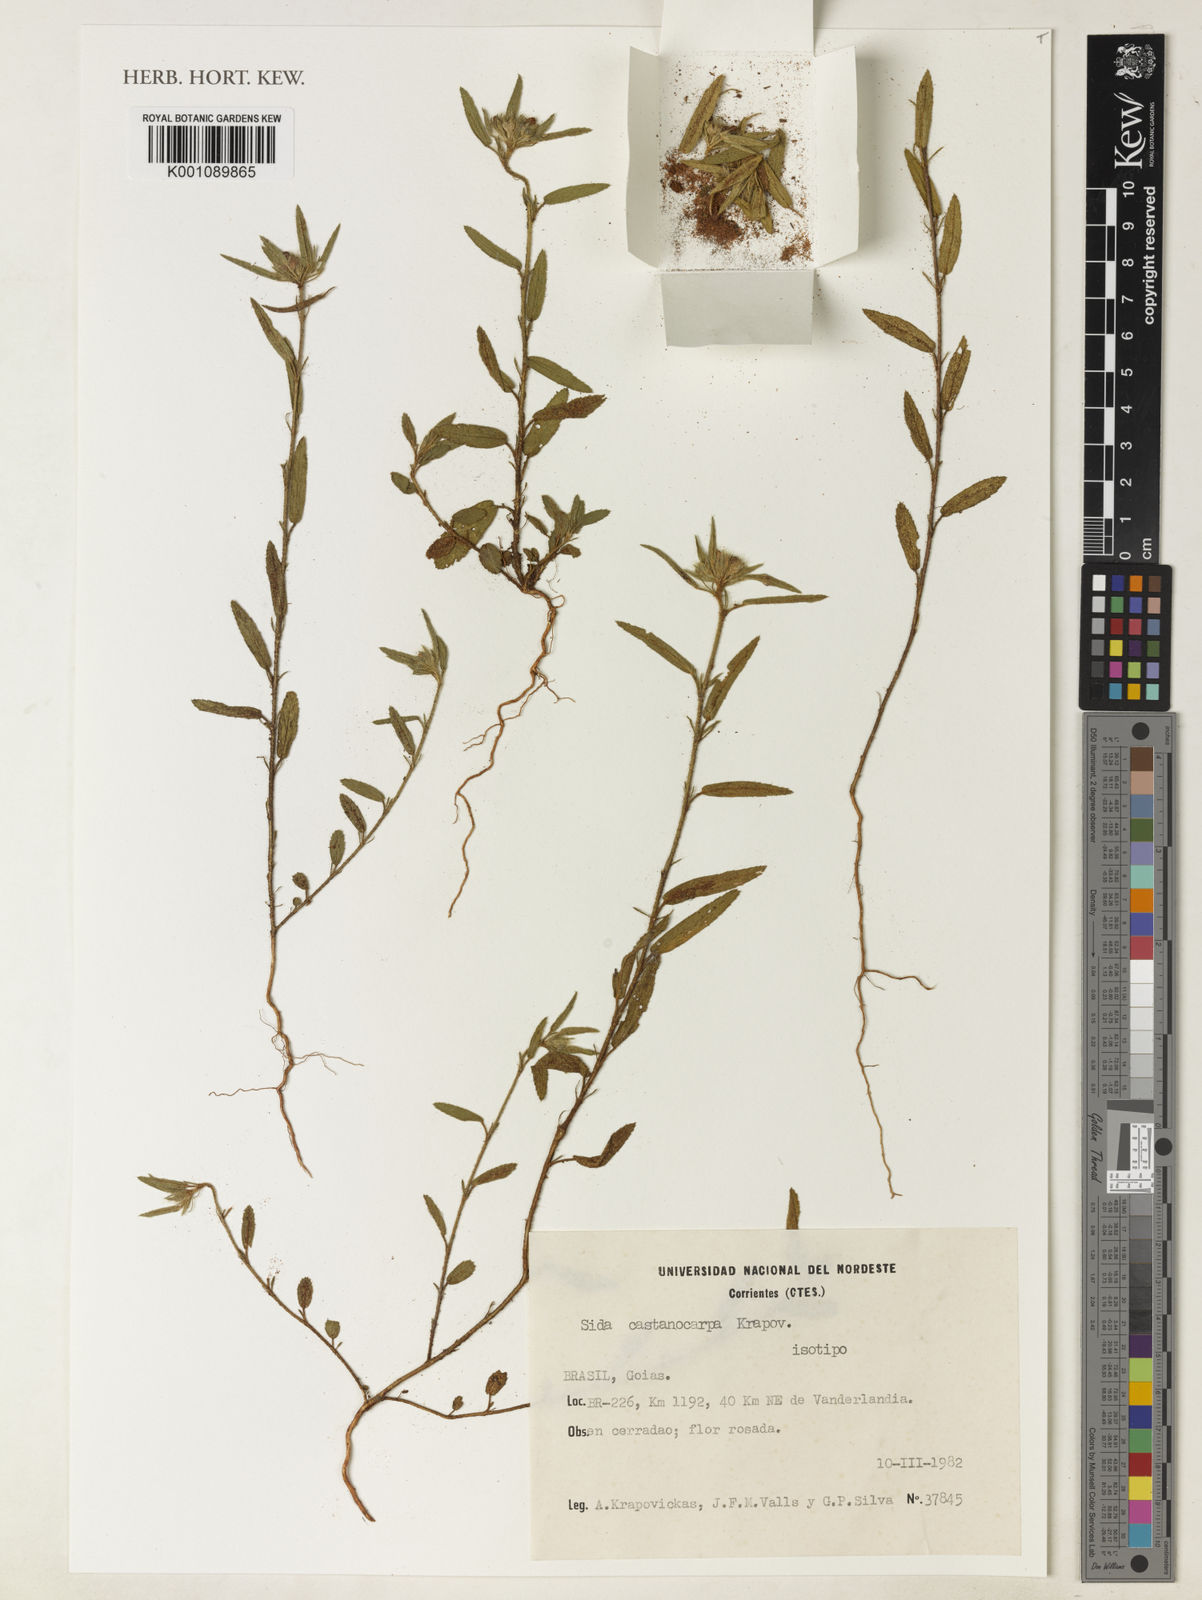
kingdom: Plantae
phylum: Tracheophyta
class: Magnoliopsida
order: Malvales
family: Malvaceae
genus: Sida
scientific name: Sida castanocarpa
